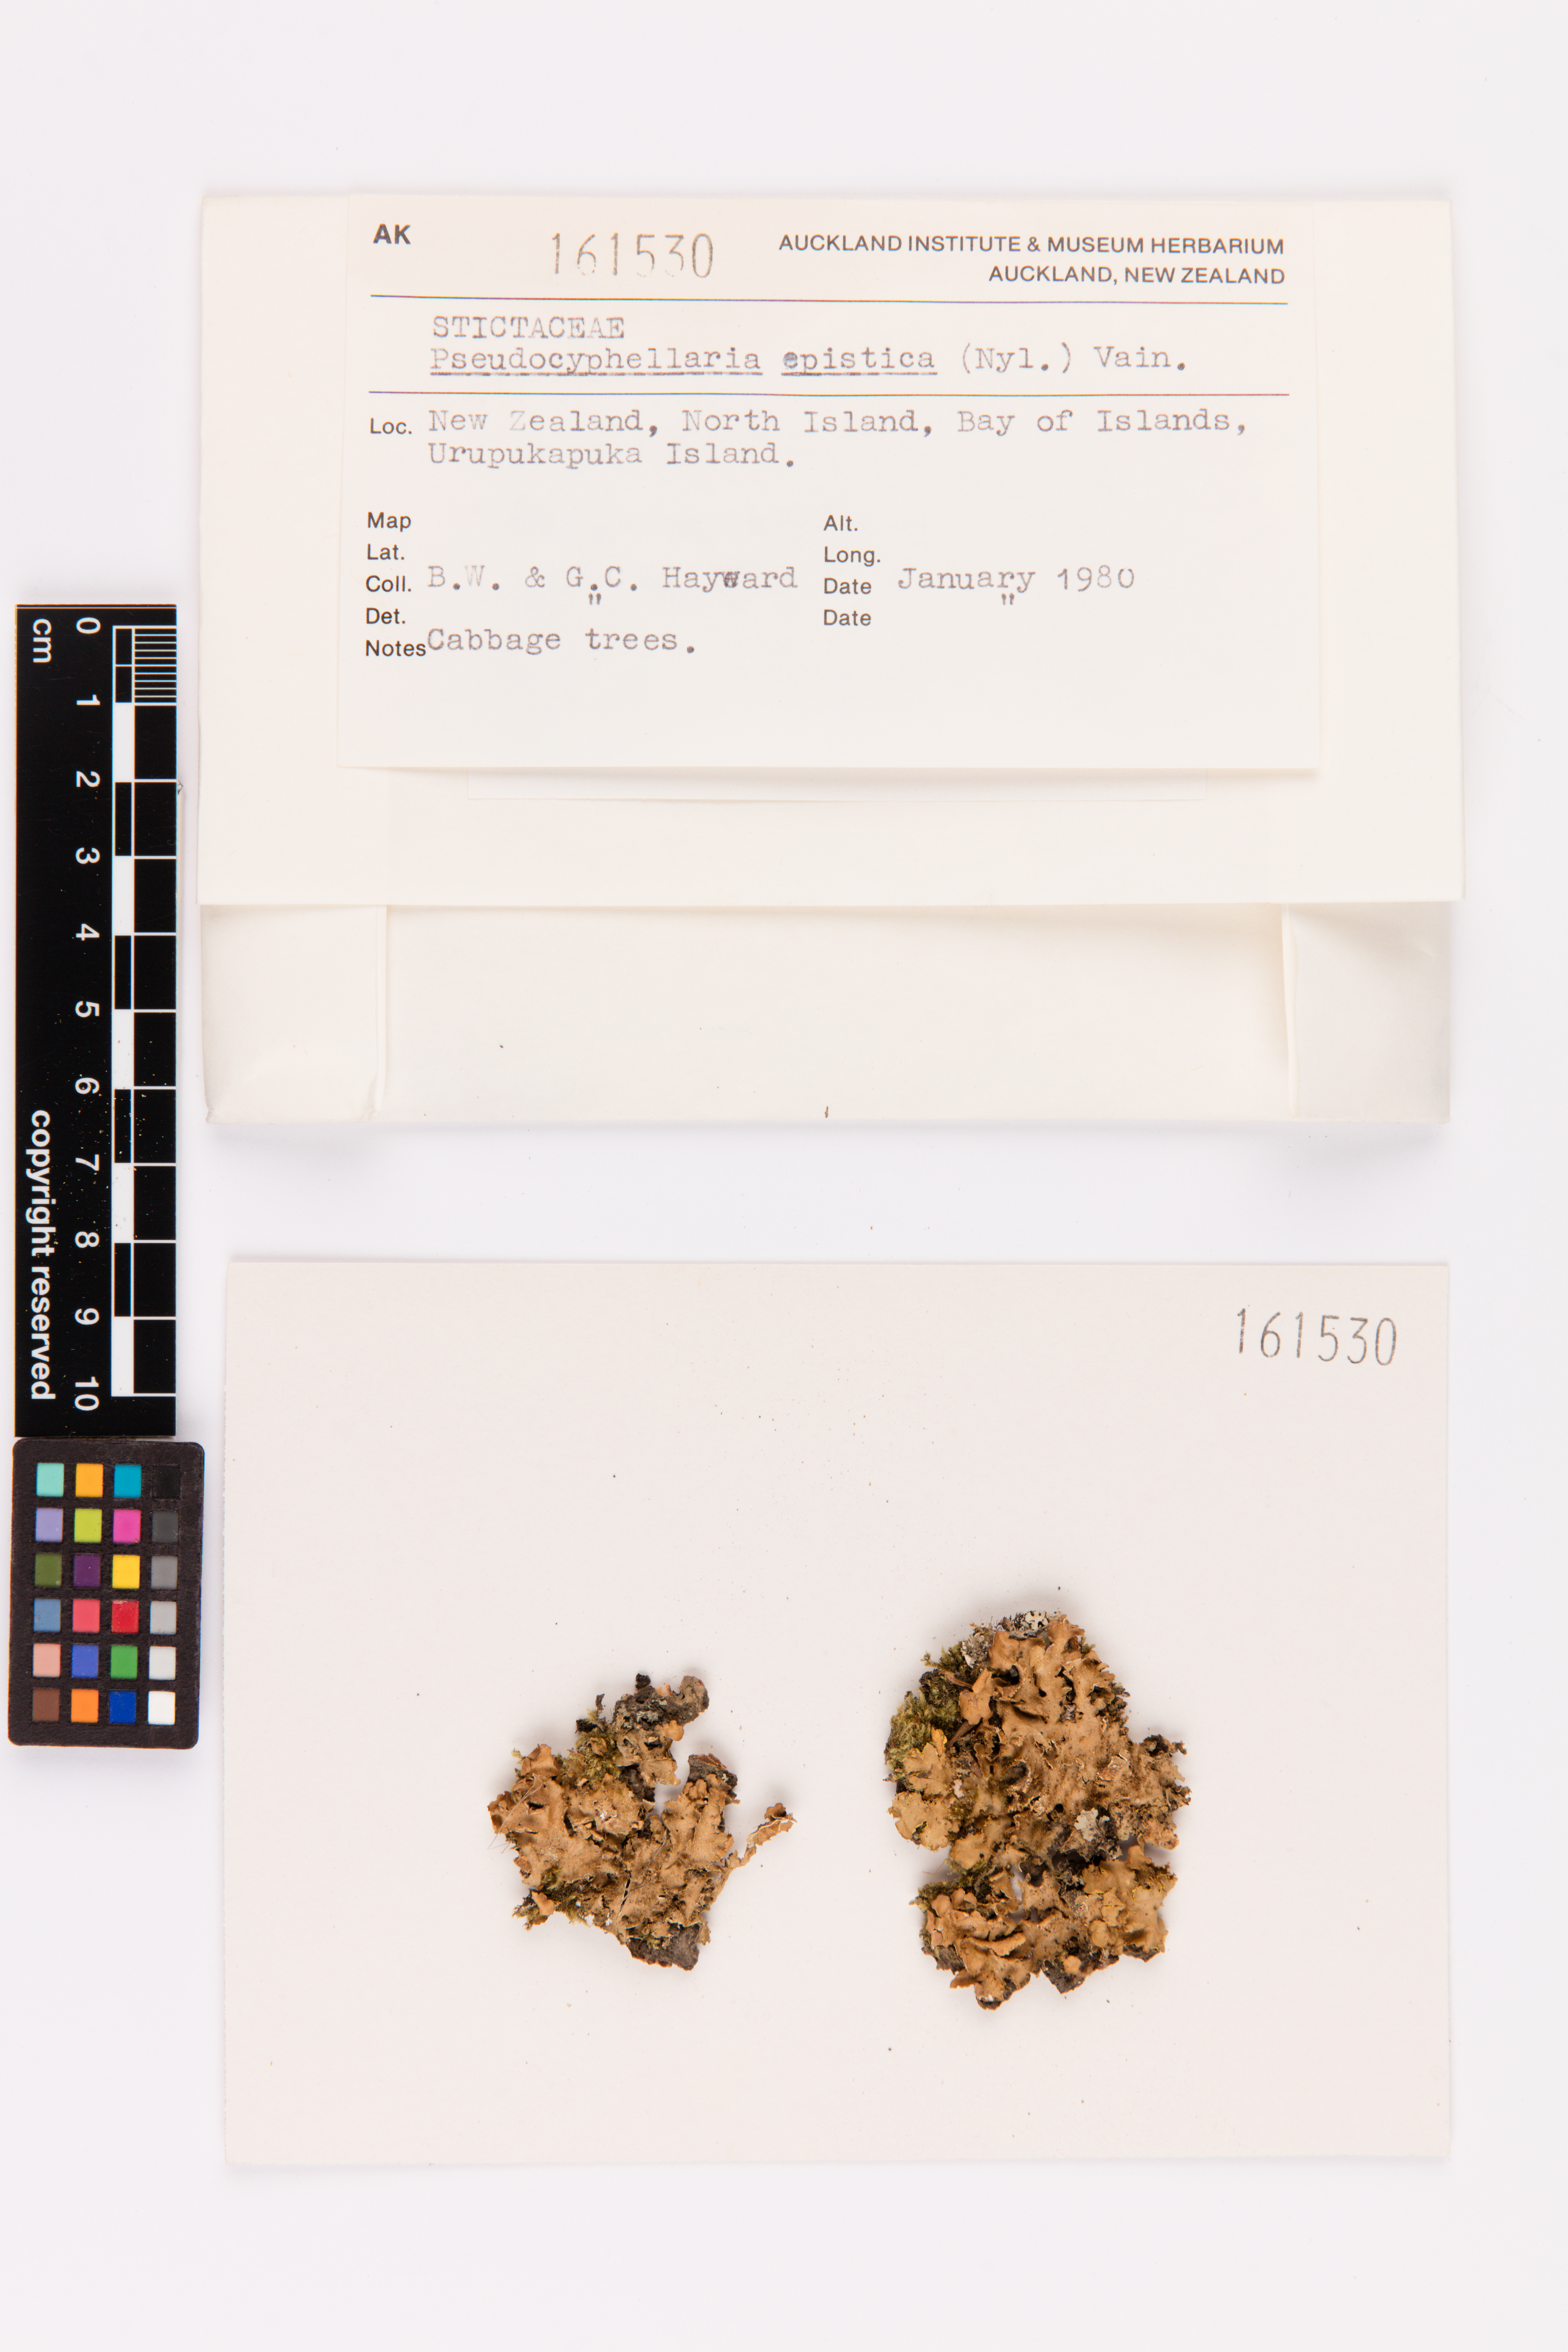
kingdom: Fungi
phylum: Ascomycota
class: Lecanoromycetes
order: Peltigerales
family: Lobariaceae
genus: Pseudocyphellaria
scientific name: Pseudocyphellaria episticta
